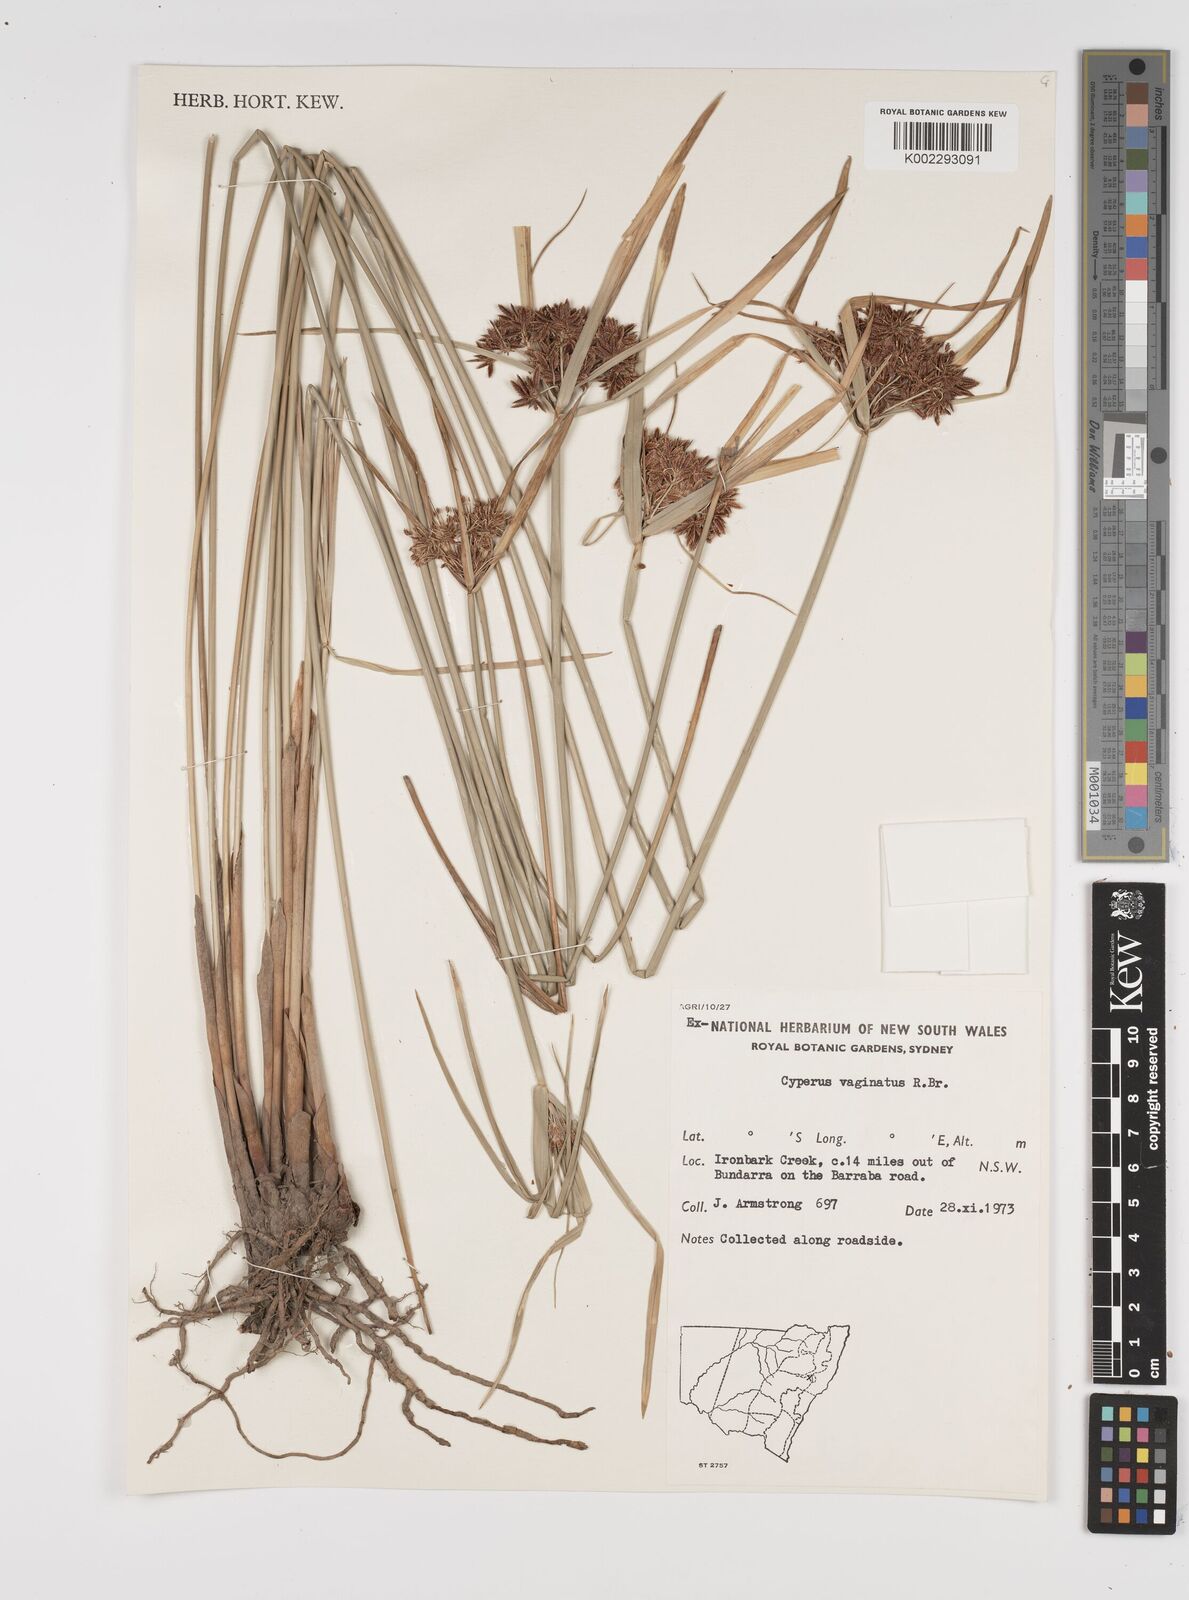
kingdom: Plantae
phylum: Tracheophyta
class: Liliopsida
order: Poales
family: Cyperaceae
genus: Cyperus
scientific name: Cyperus vaginatus
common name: Stiff-leaved flat-sedge
